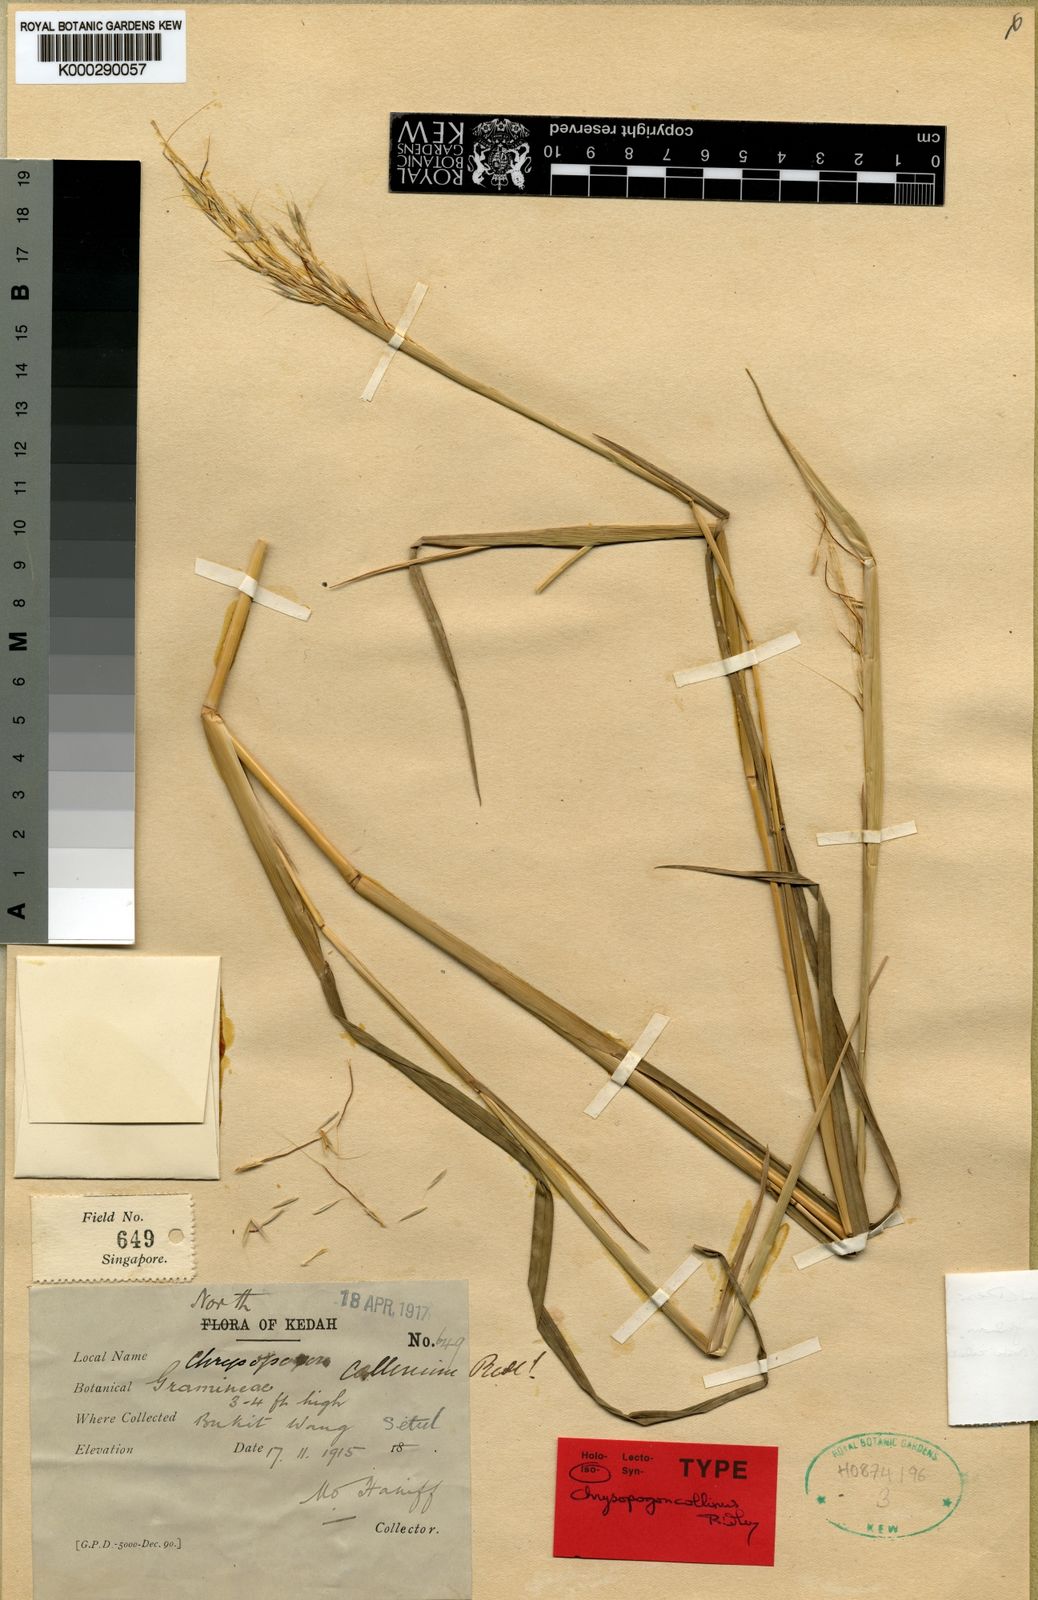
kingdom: Plantae
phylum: Tracheophyta
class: Liliopsida
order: Poales
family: Poaceae
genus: Chrysopogon
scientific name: Chrysopogon orientalis
